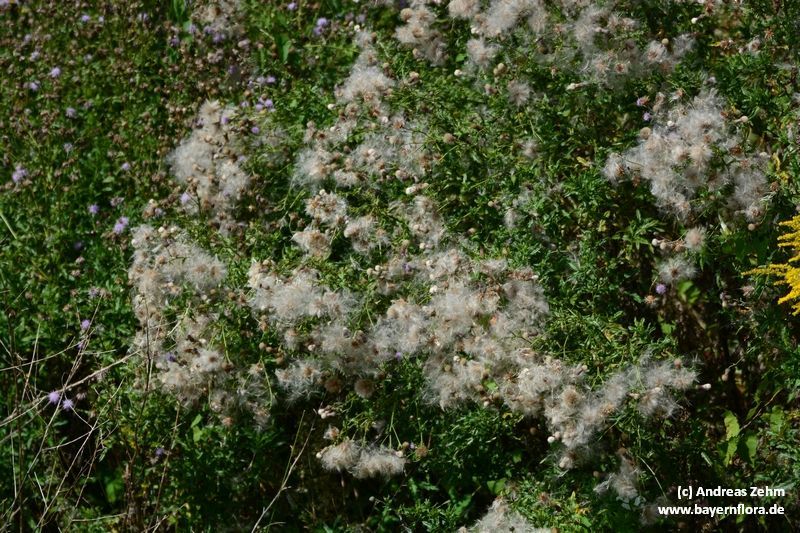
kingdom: Plantae
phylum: Tracheophyta
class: Magnoliopsida
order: Asterales
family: Asteraceae
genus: Cirsium
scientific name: Cirsium arvense
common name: Creeping thistle
